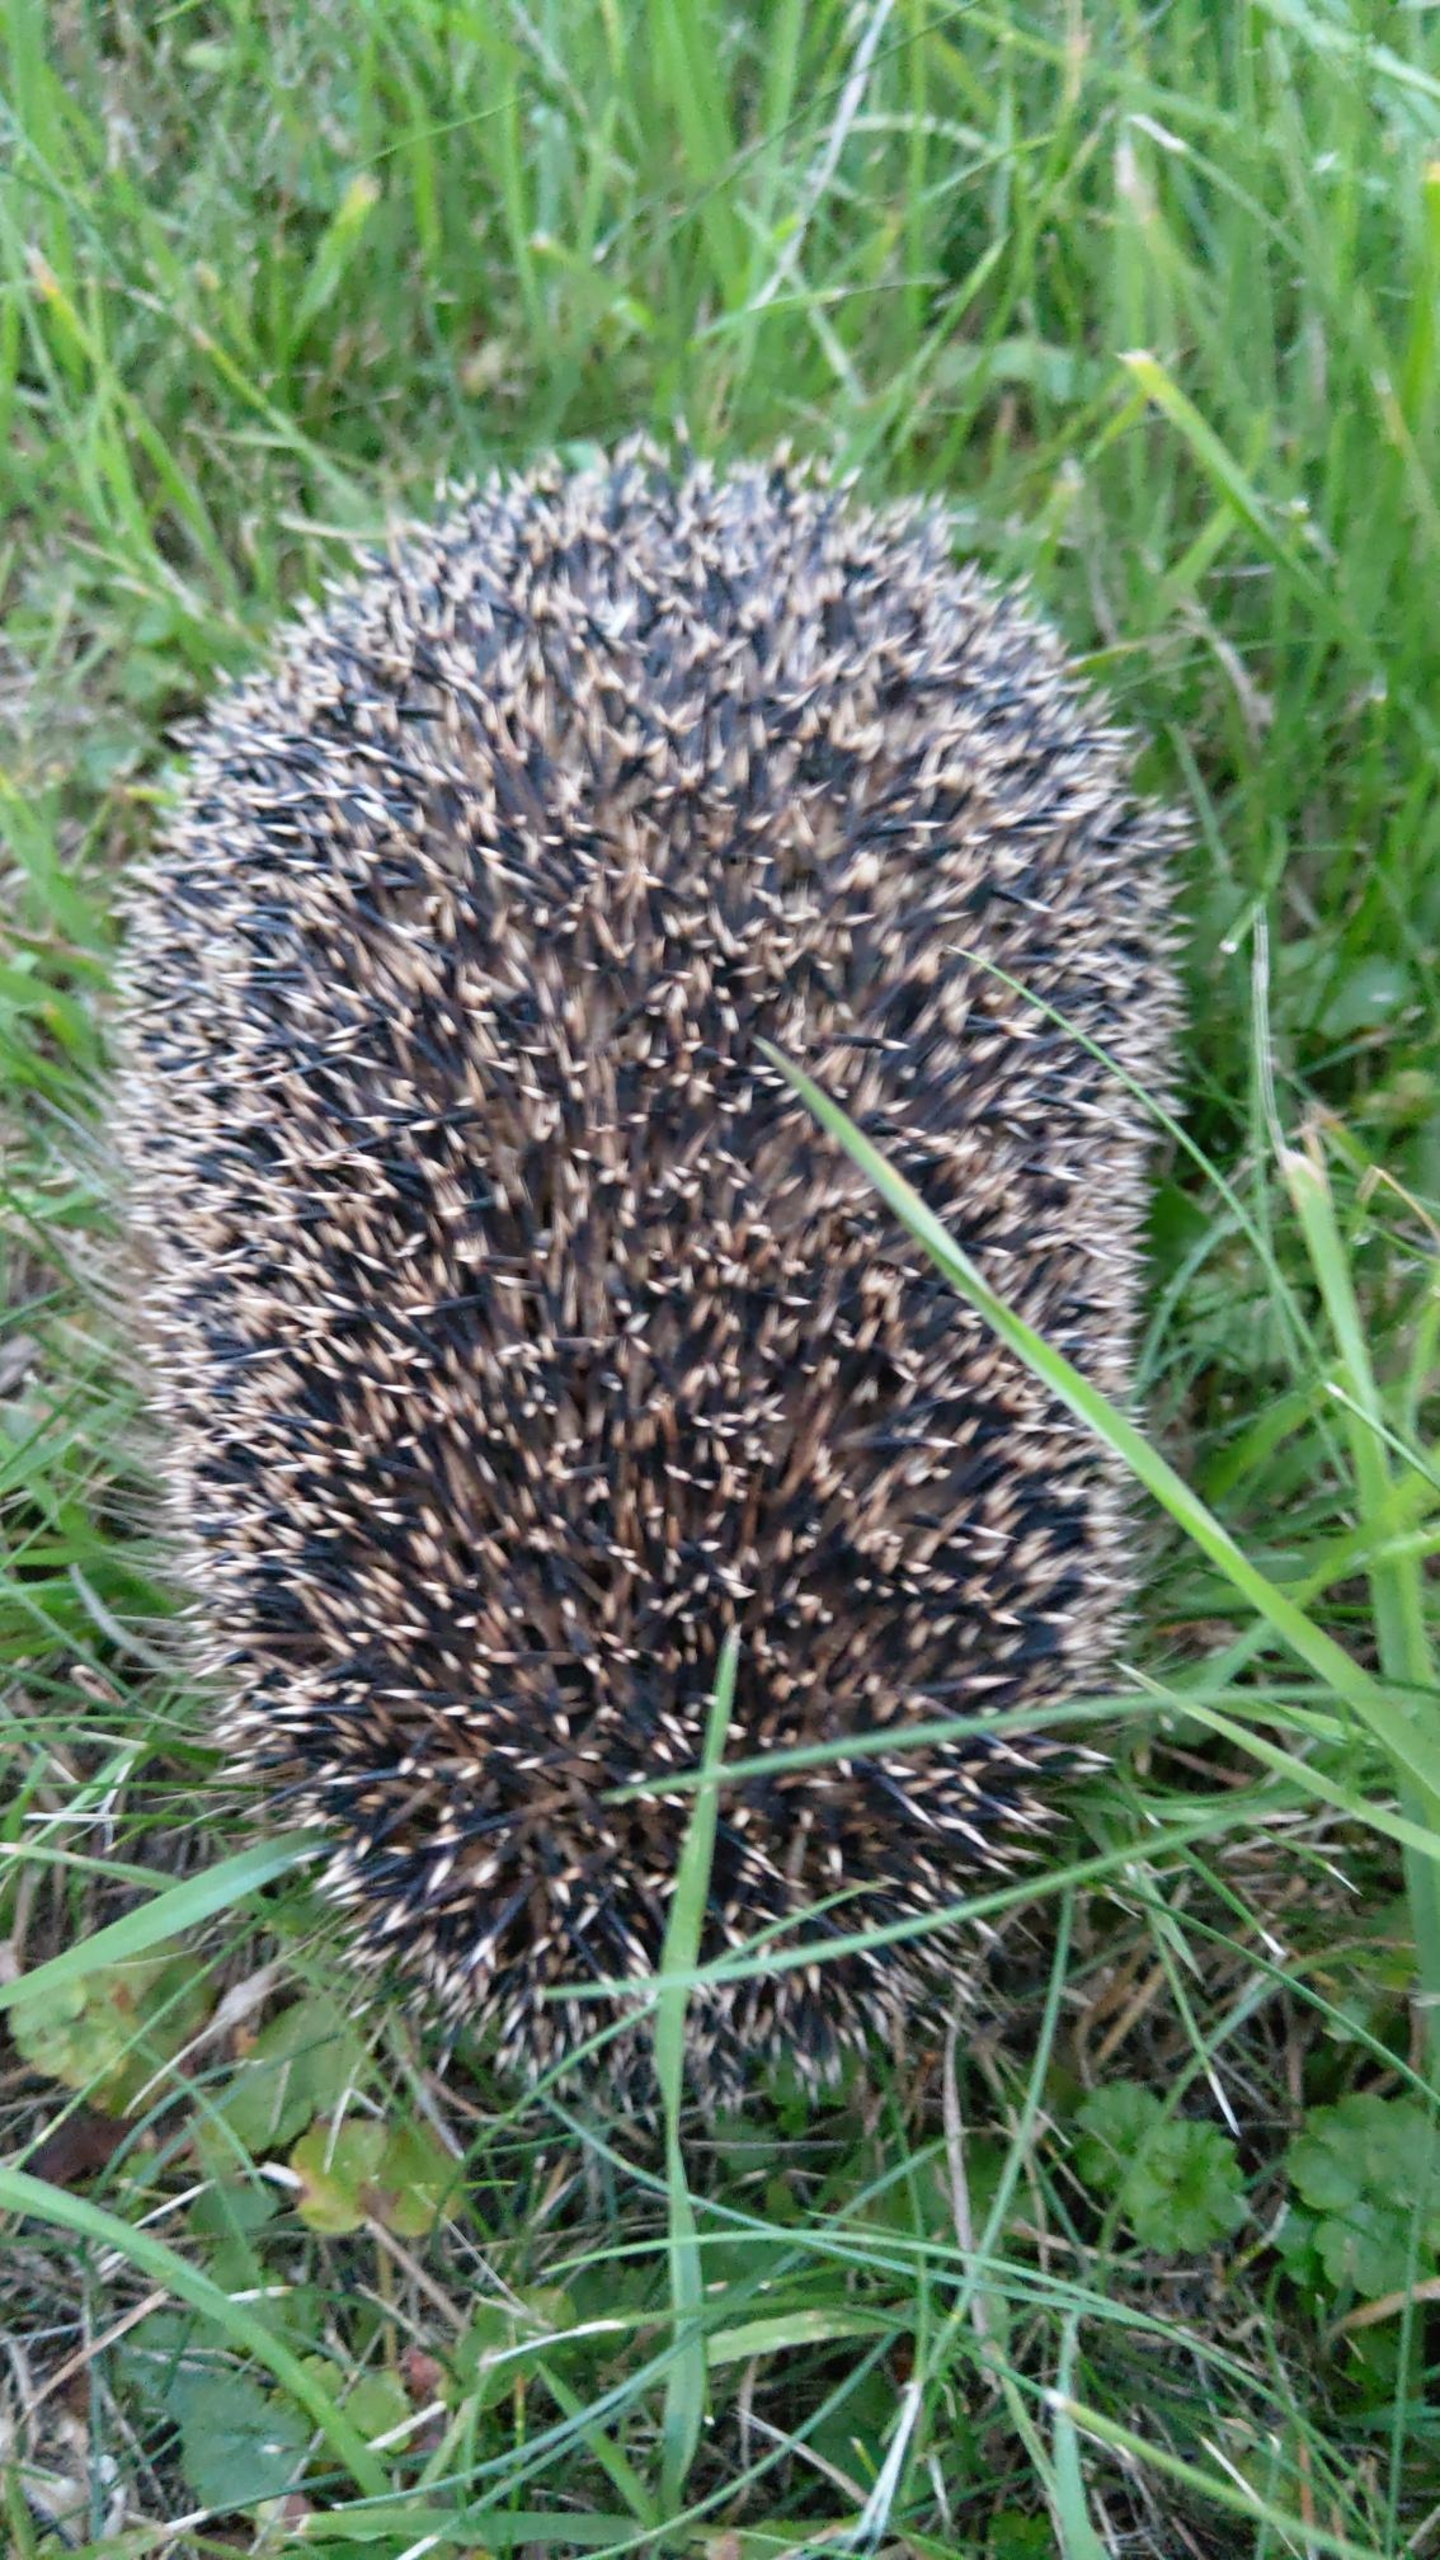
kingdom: Animalia
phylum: Chordata
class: Mammalia
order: Erinaceomorpha
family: Erinaceidae
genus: Erinaceus
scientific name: Erinaceus europaeus
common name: Pindsvin
